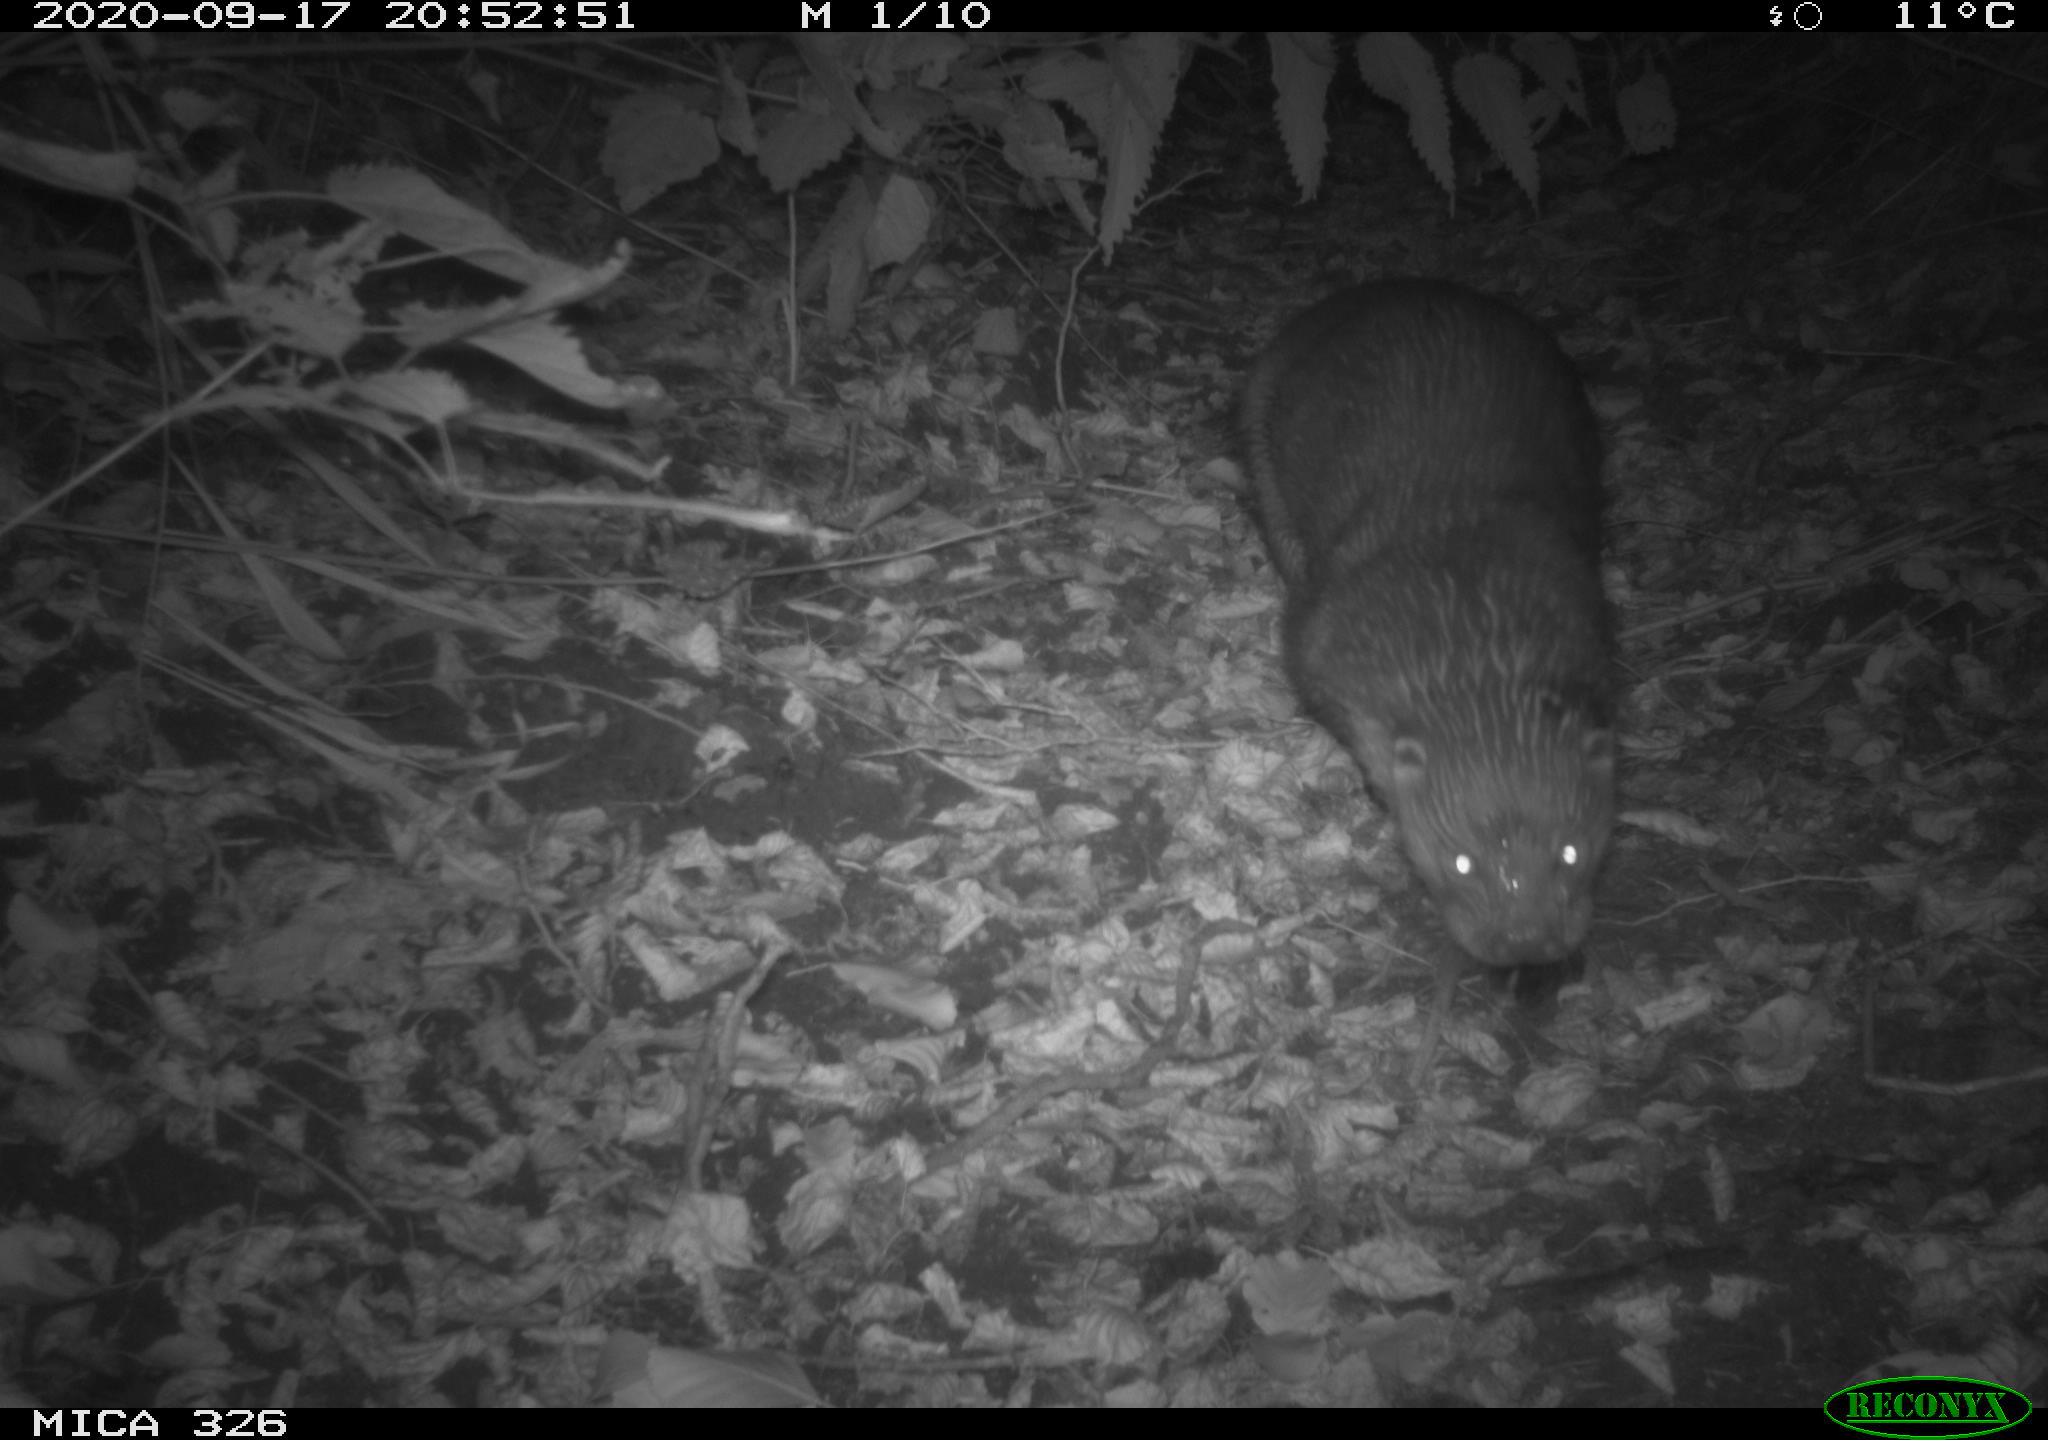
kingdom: Animalia
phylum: Chordata
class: Mammalia
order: Carnivora
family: Mustelidae
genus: Lutra
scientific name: Lutra lutra
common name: European otter
